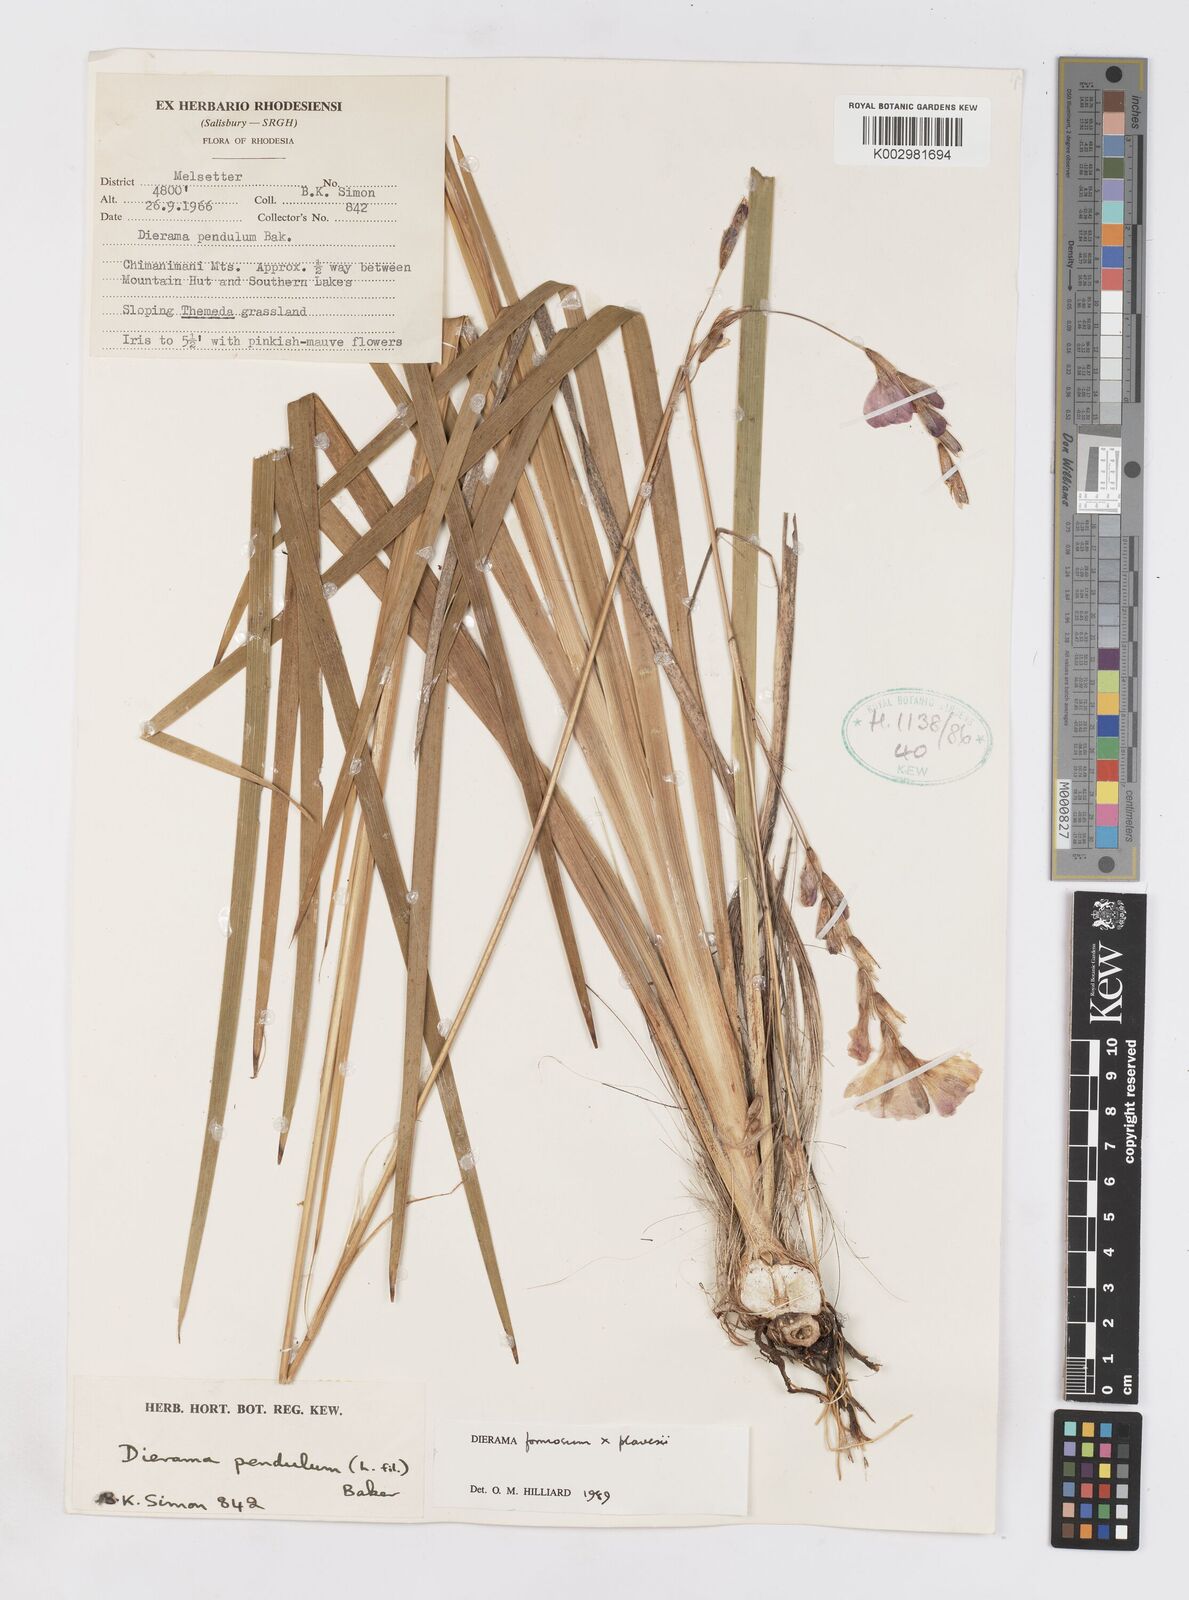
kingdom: Plantae
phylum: Tracheophyta
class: Liliopsida
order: Asparagales
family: Iridaceae
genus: Dierama
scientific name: Dierama formosum
